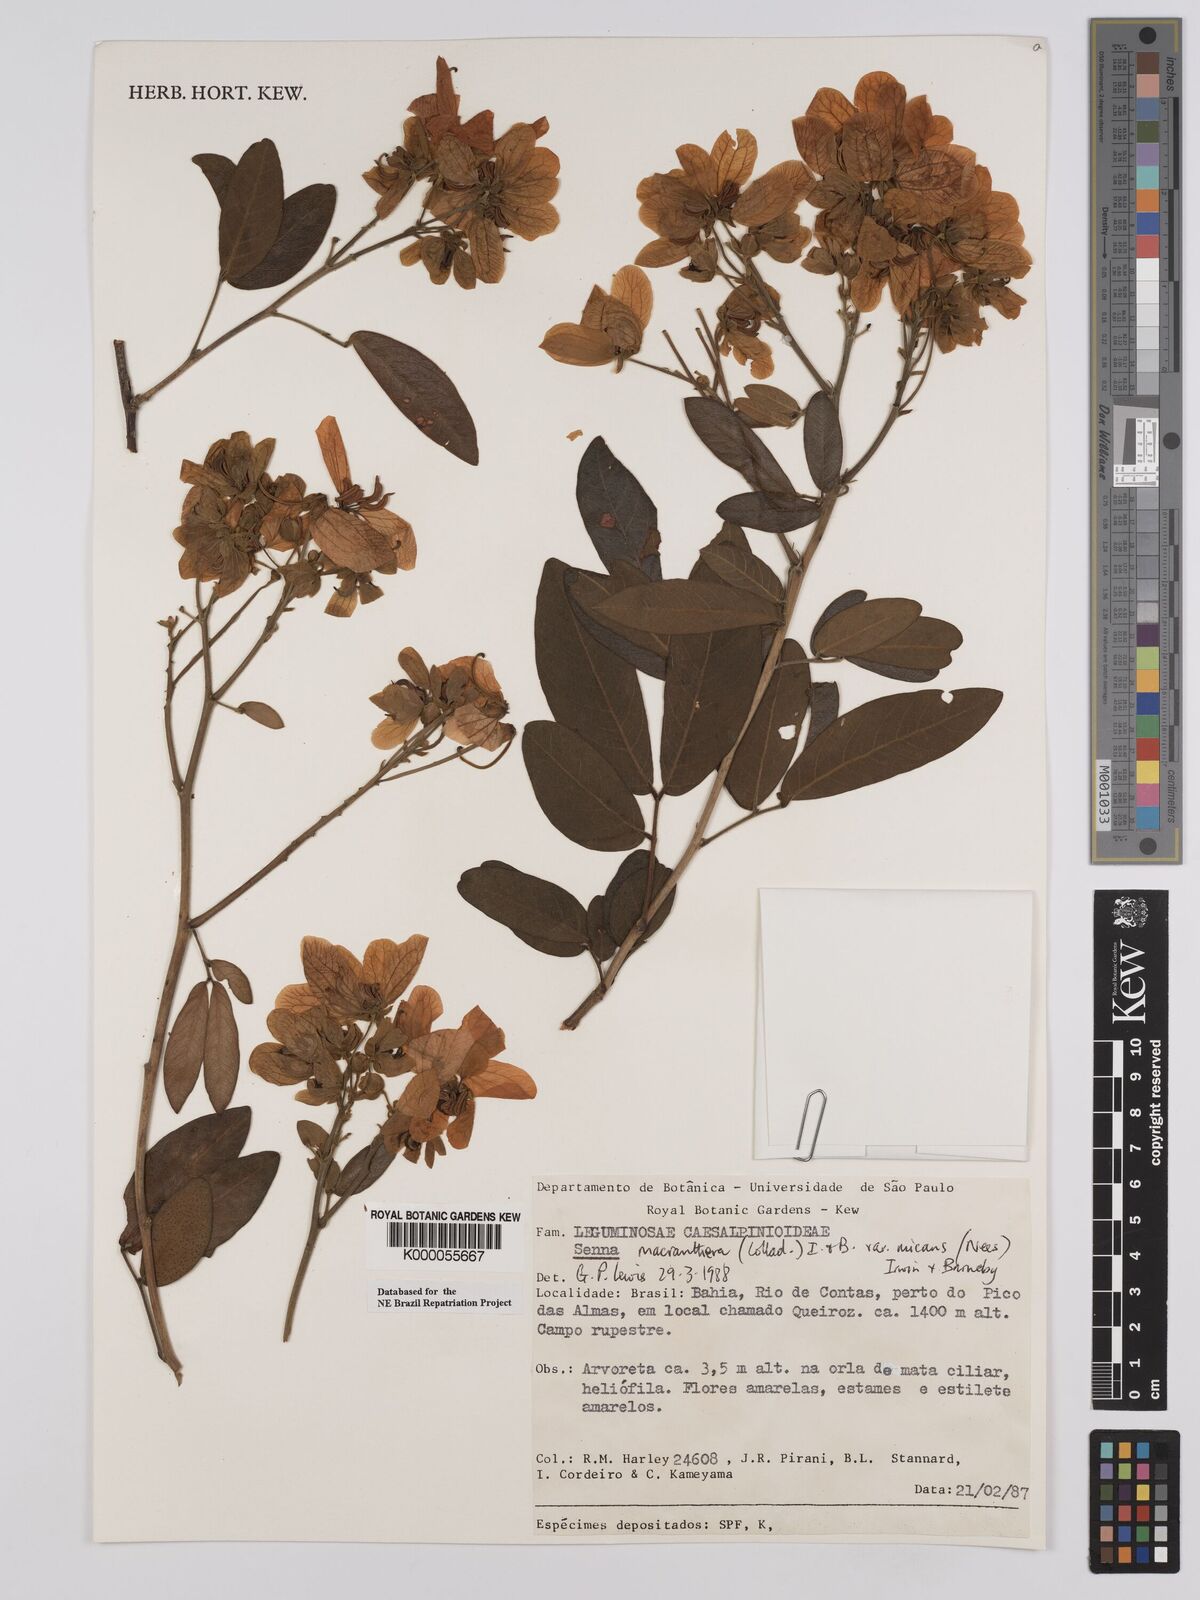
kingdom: Plantae
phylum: Tracheophyta
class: Magnoliopsida
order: Fabales
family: Fabaceae
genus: Senna
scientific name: Senna macranthera
